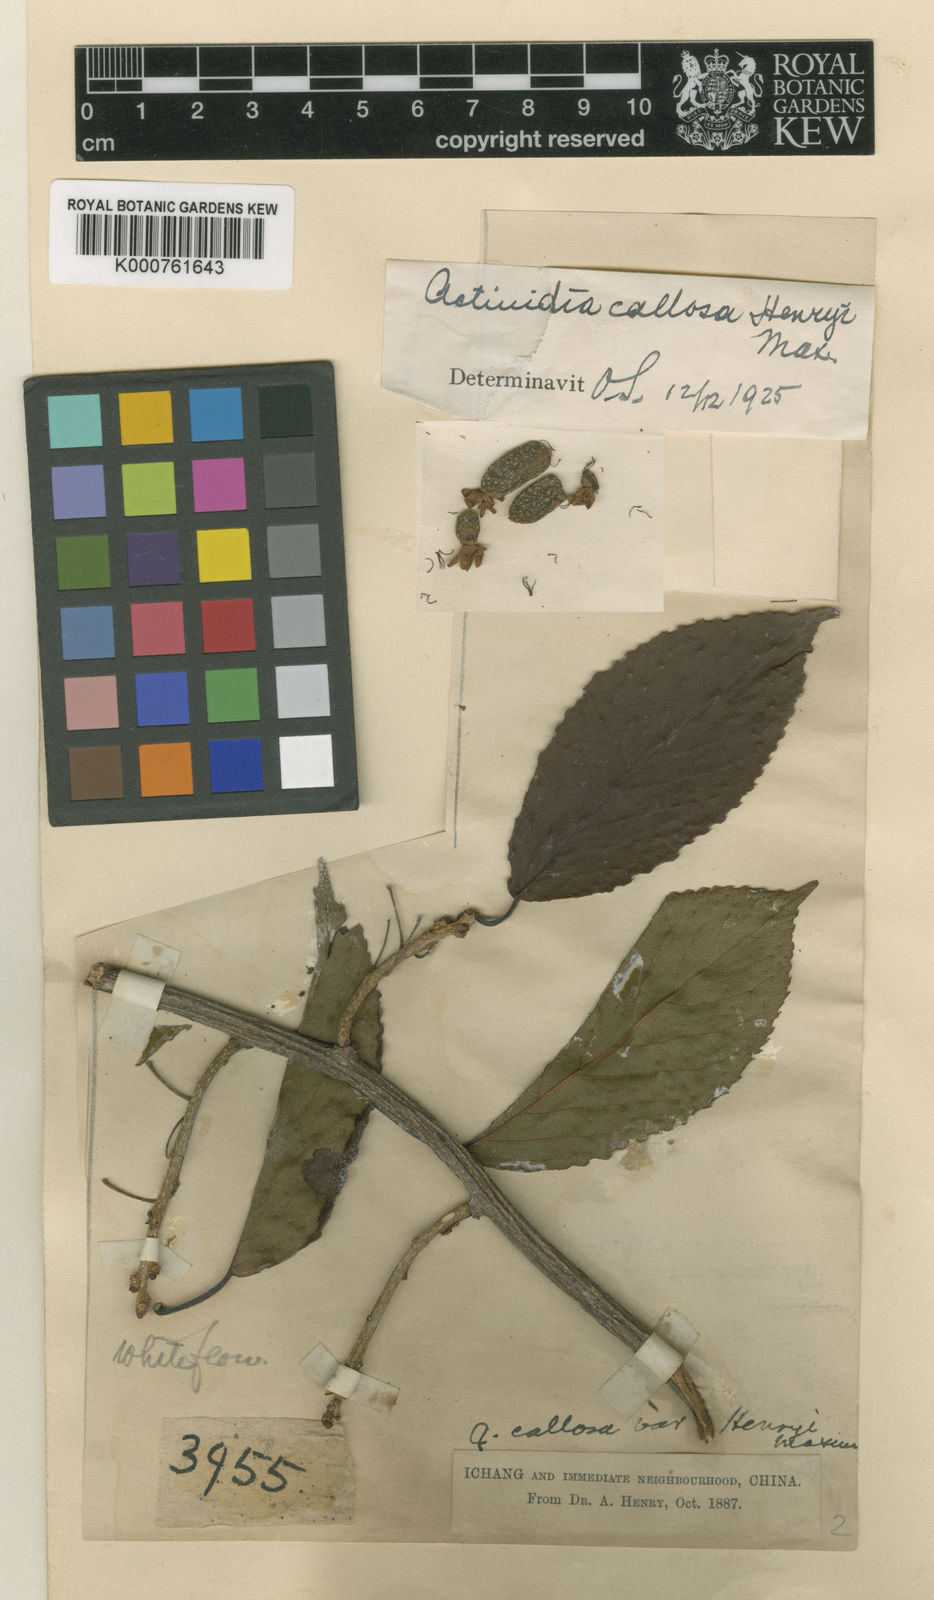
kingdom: Plantae
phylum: Tracheophyta
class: Magnoliopsida
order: Ericales
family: Actinidiaceae
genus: Actinidia
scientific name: Actinidia callosa
